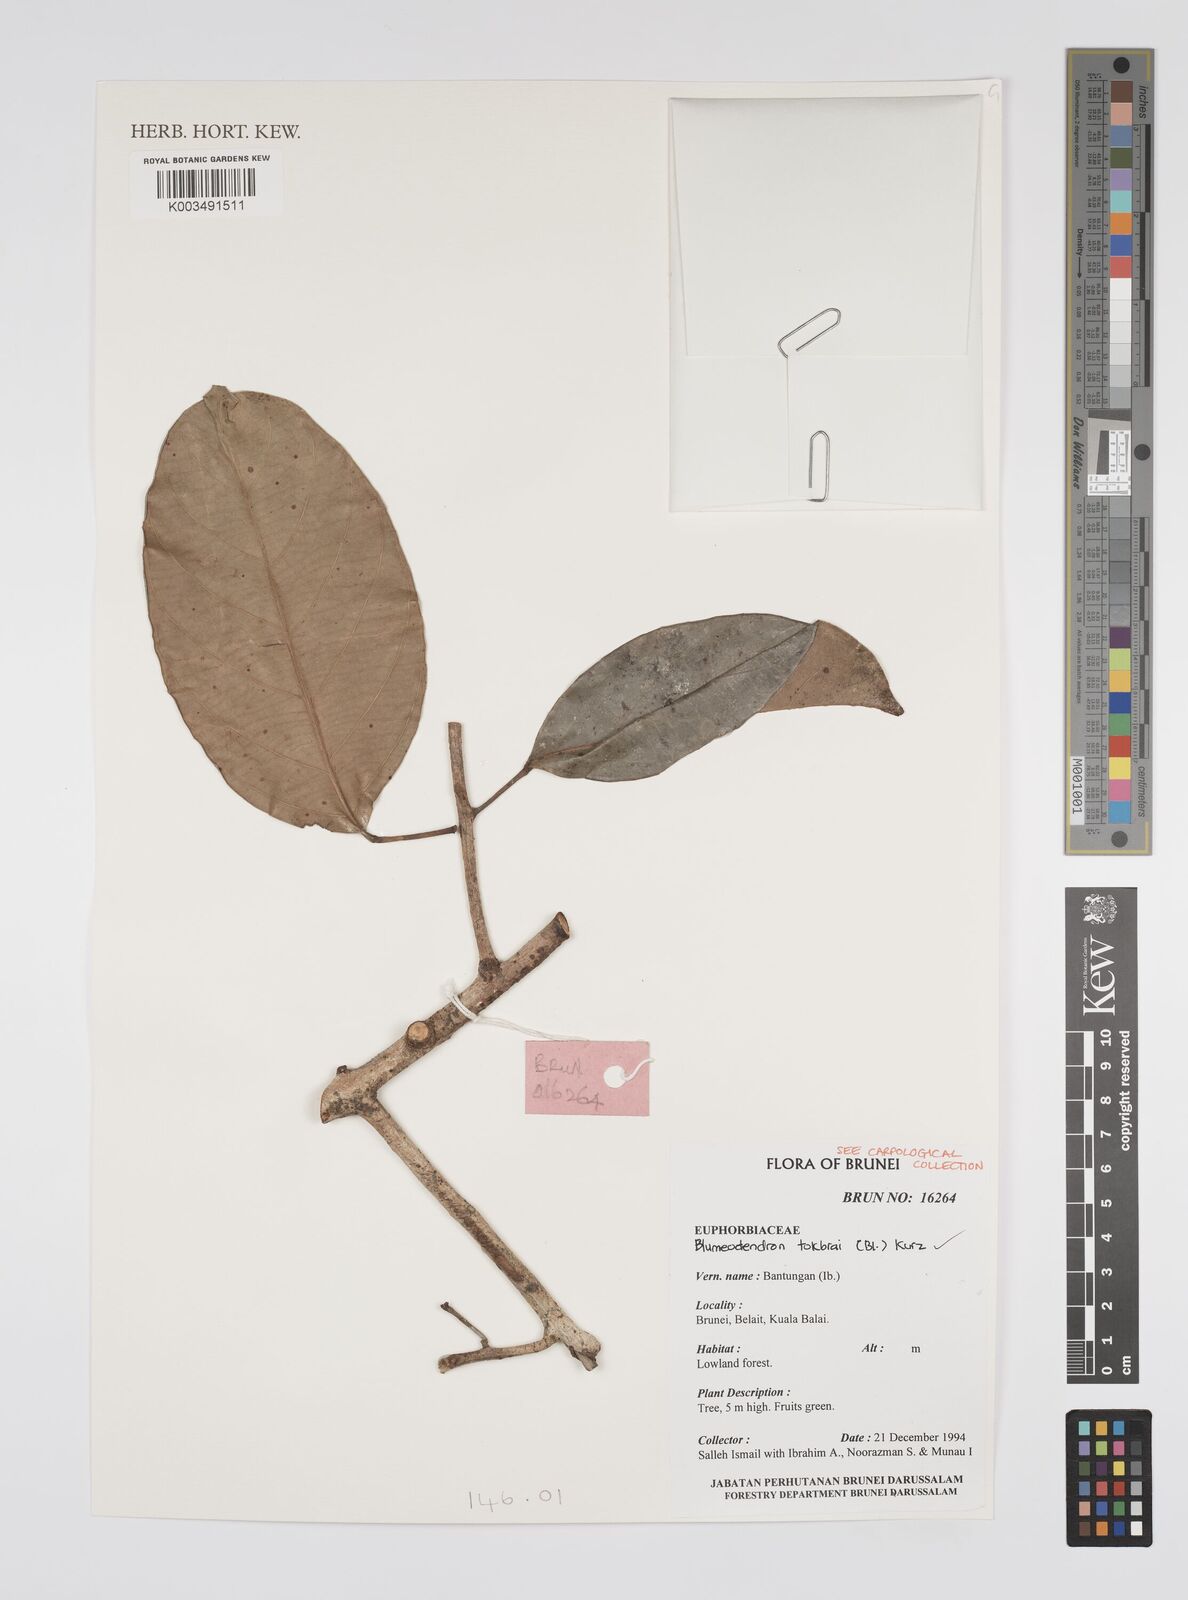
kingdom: Plantae
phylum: Tracheophyta
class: Magnoliopsida
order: Malpighiales
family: Euphorbiaceae
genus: Blumeodendron
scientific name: Blumeodendron tokbrai
